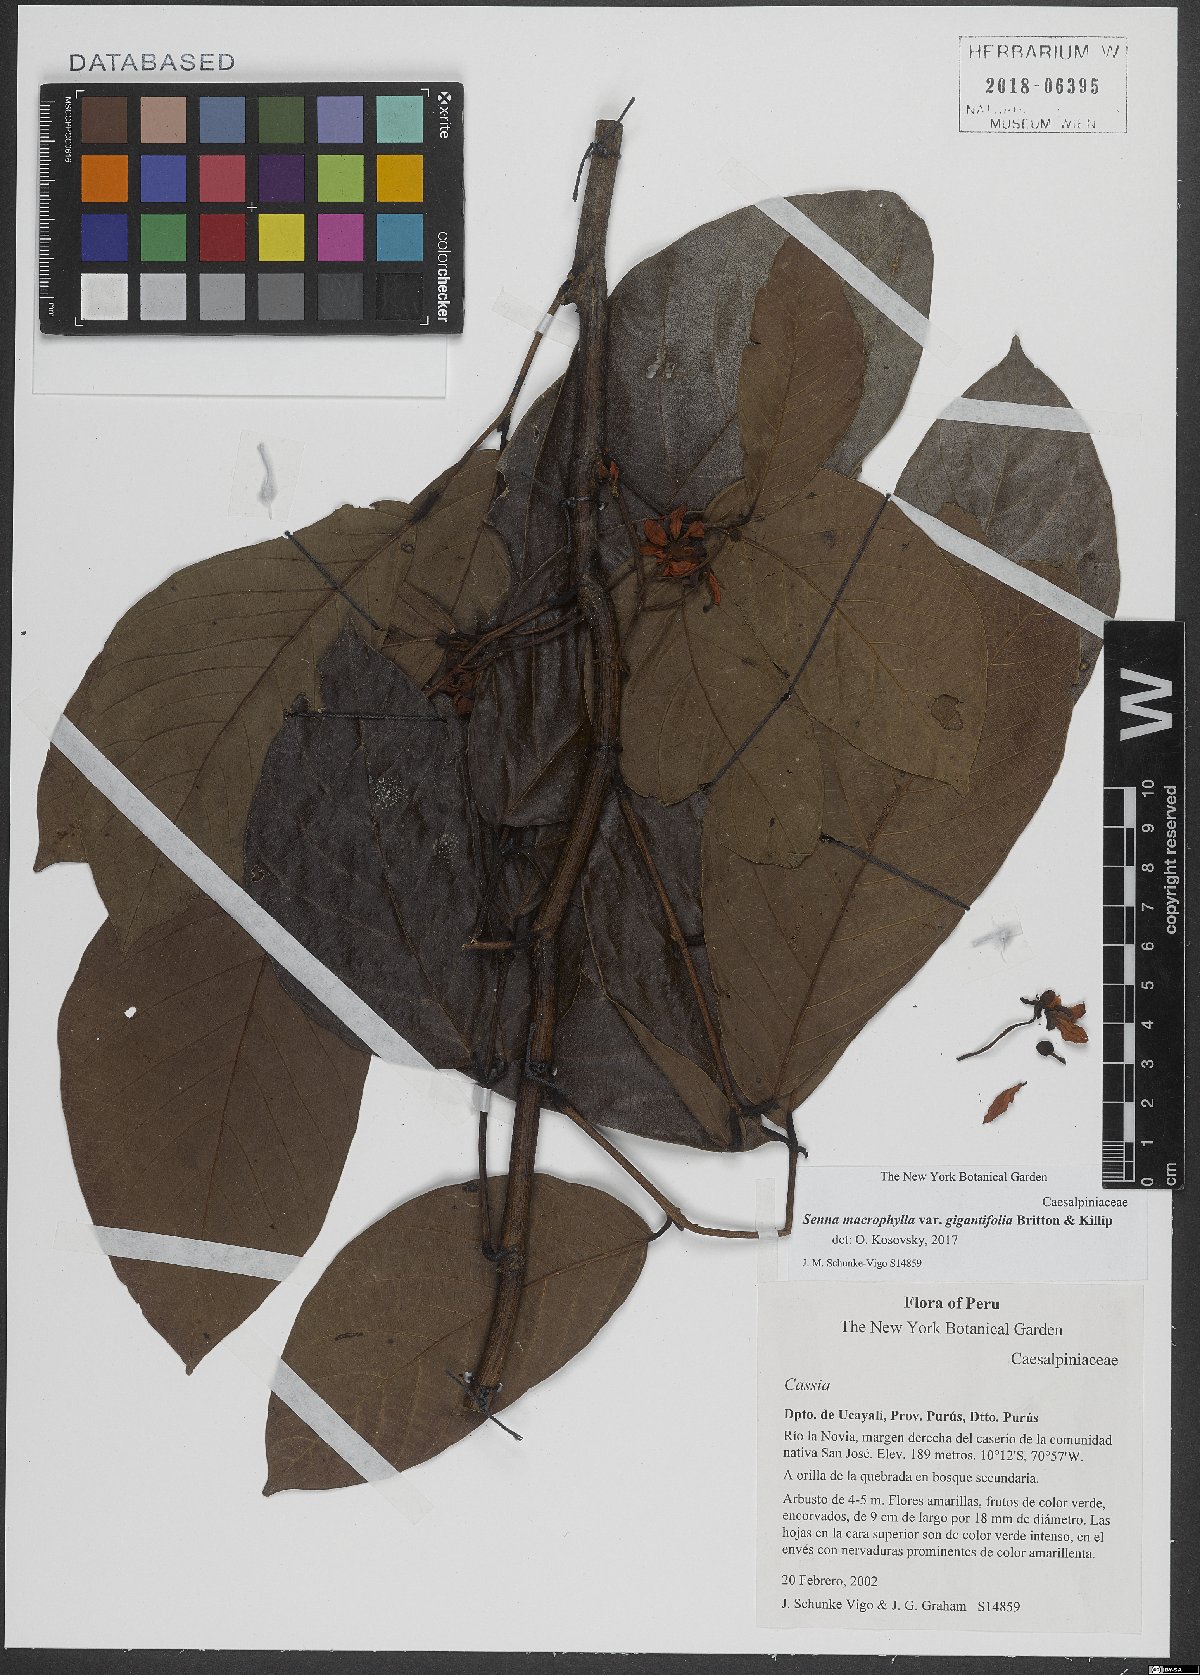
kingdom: Plantae
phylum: Tracheophyta
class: Magnoliopsida
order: Fabales
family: Fabaceae
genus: Senna
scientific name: Senna macrophylla
